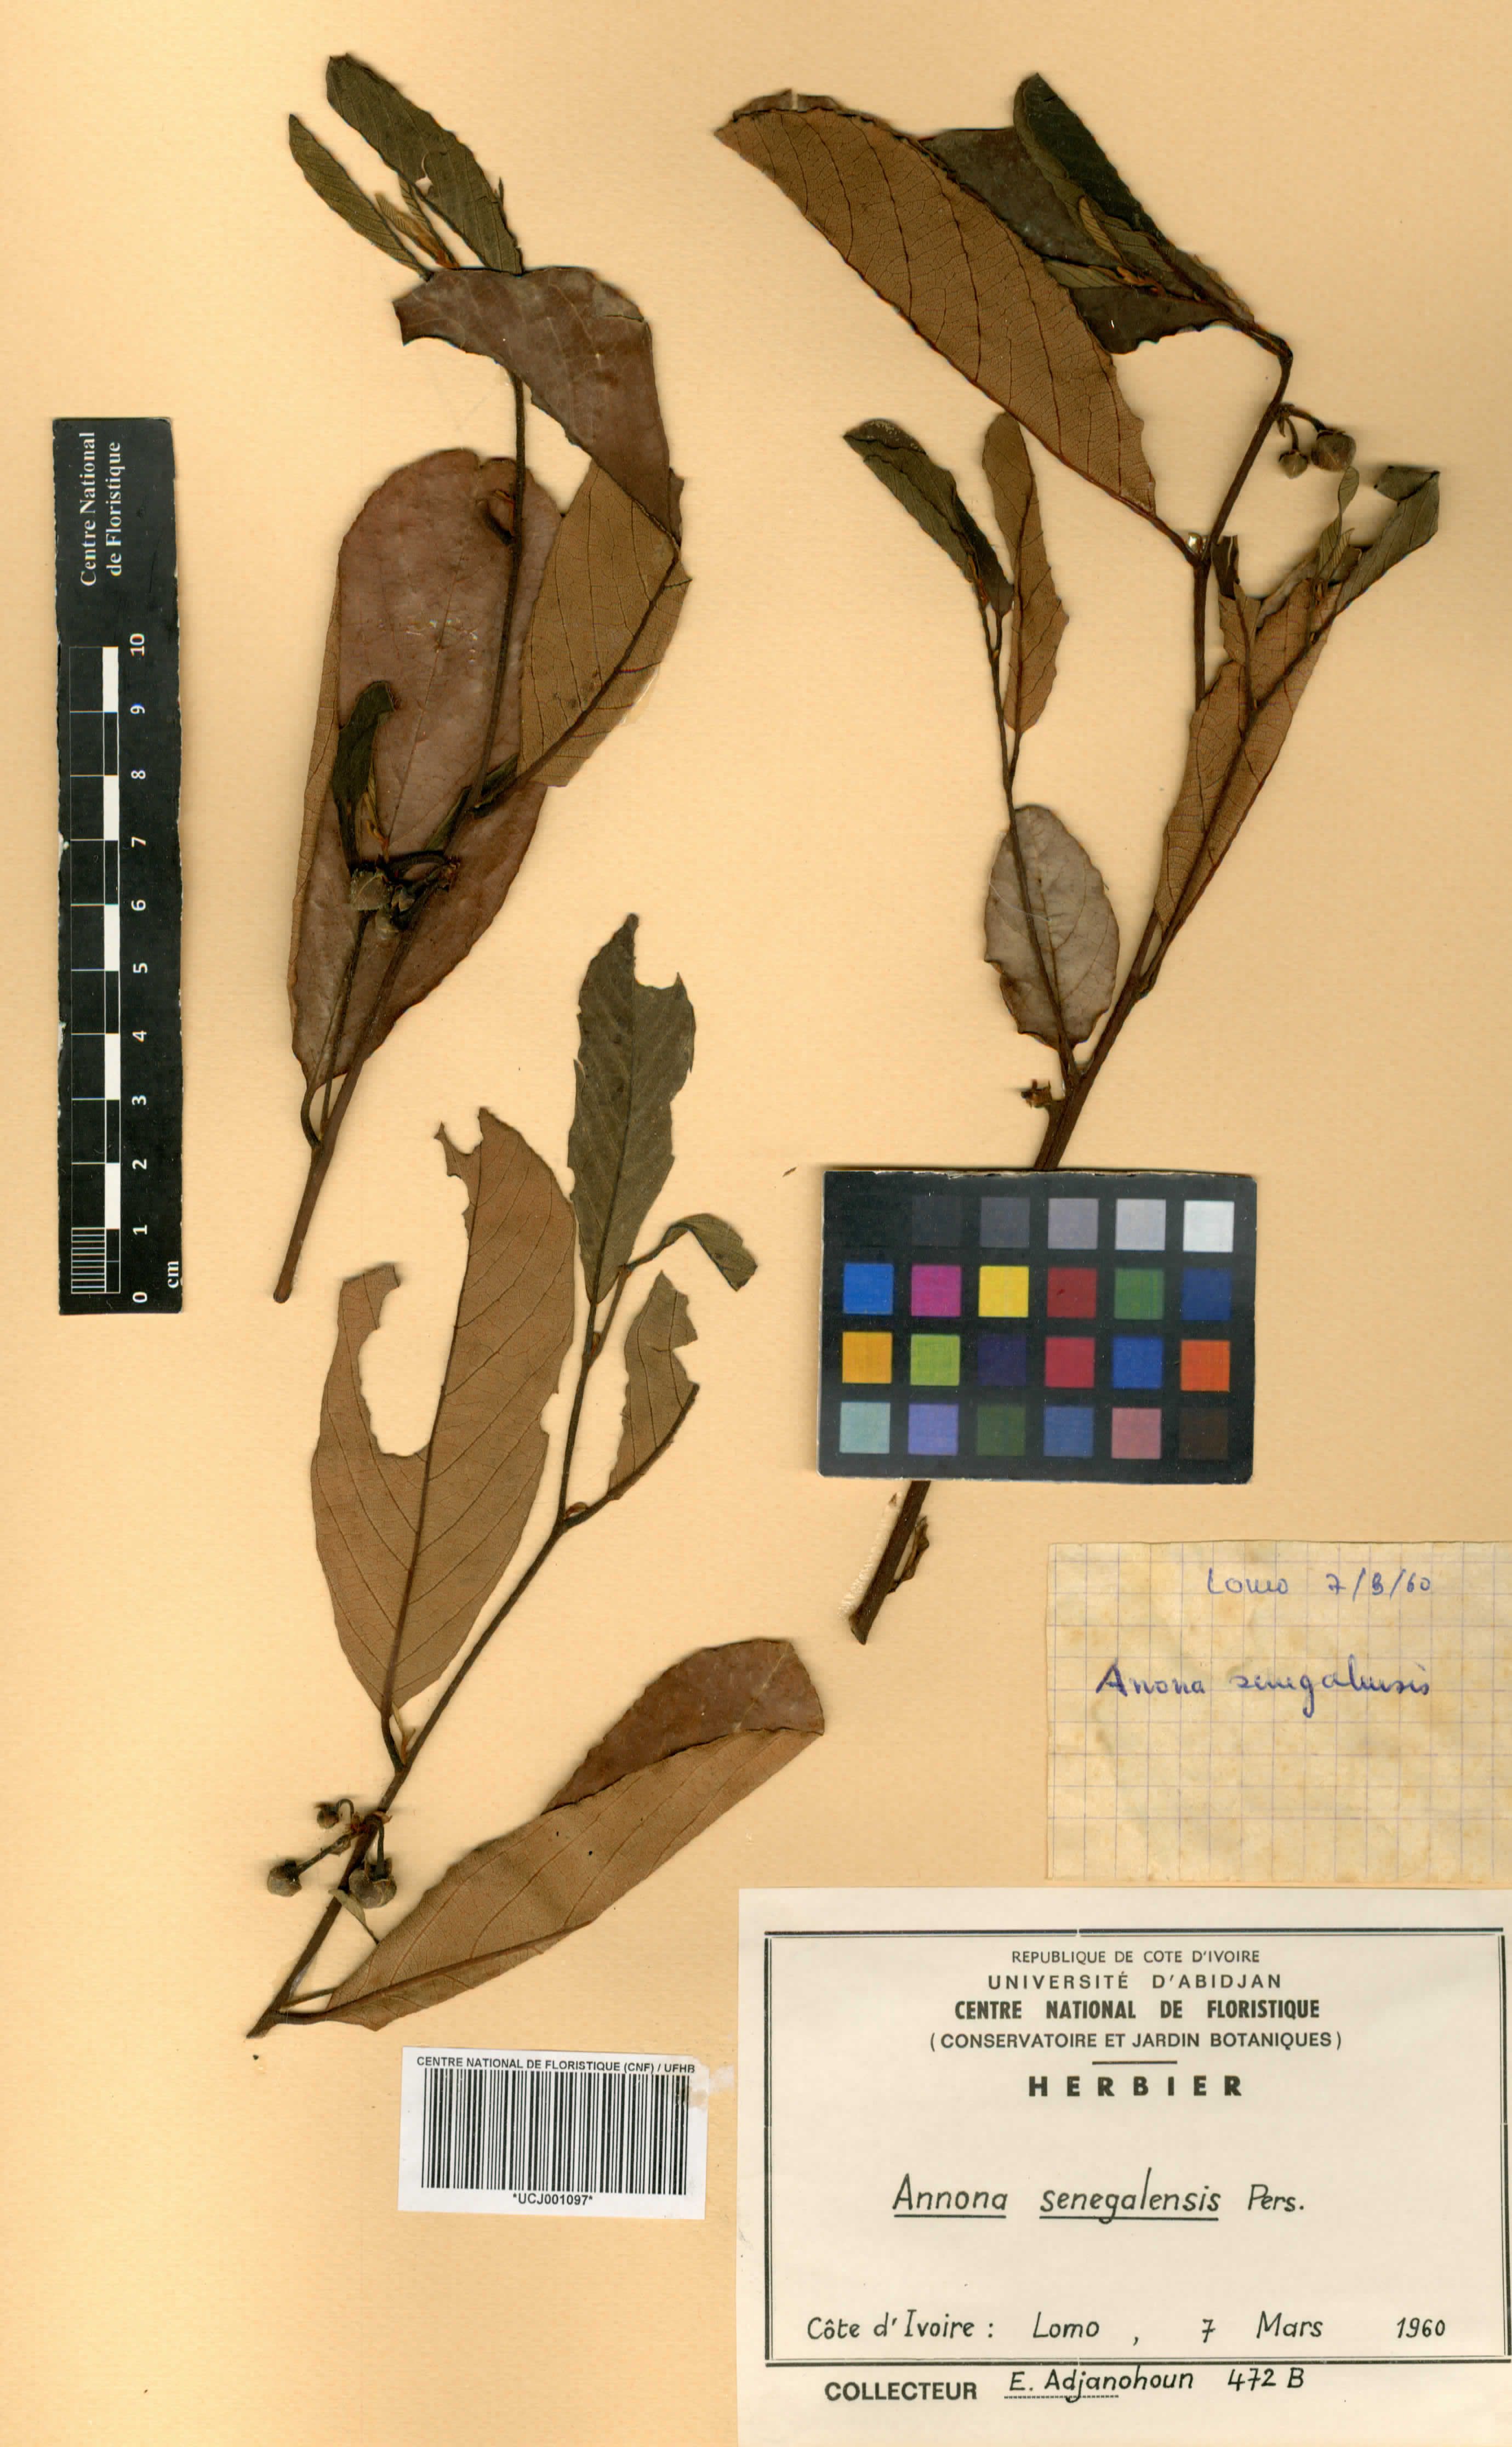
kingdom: Plantae
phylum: Tracheophyta
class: Magnoliopsida
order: Magnoliales
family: Annonaceae
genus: Annona
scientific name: Annona senegalensis
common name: Wild custard-apple
